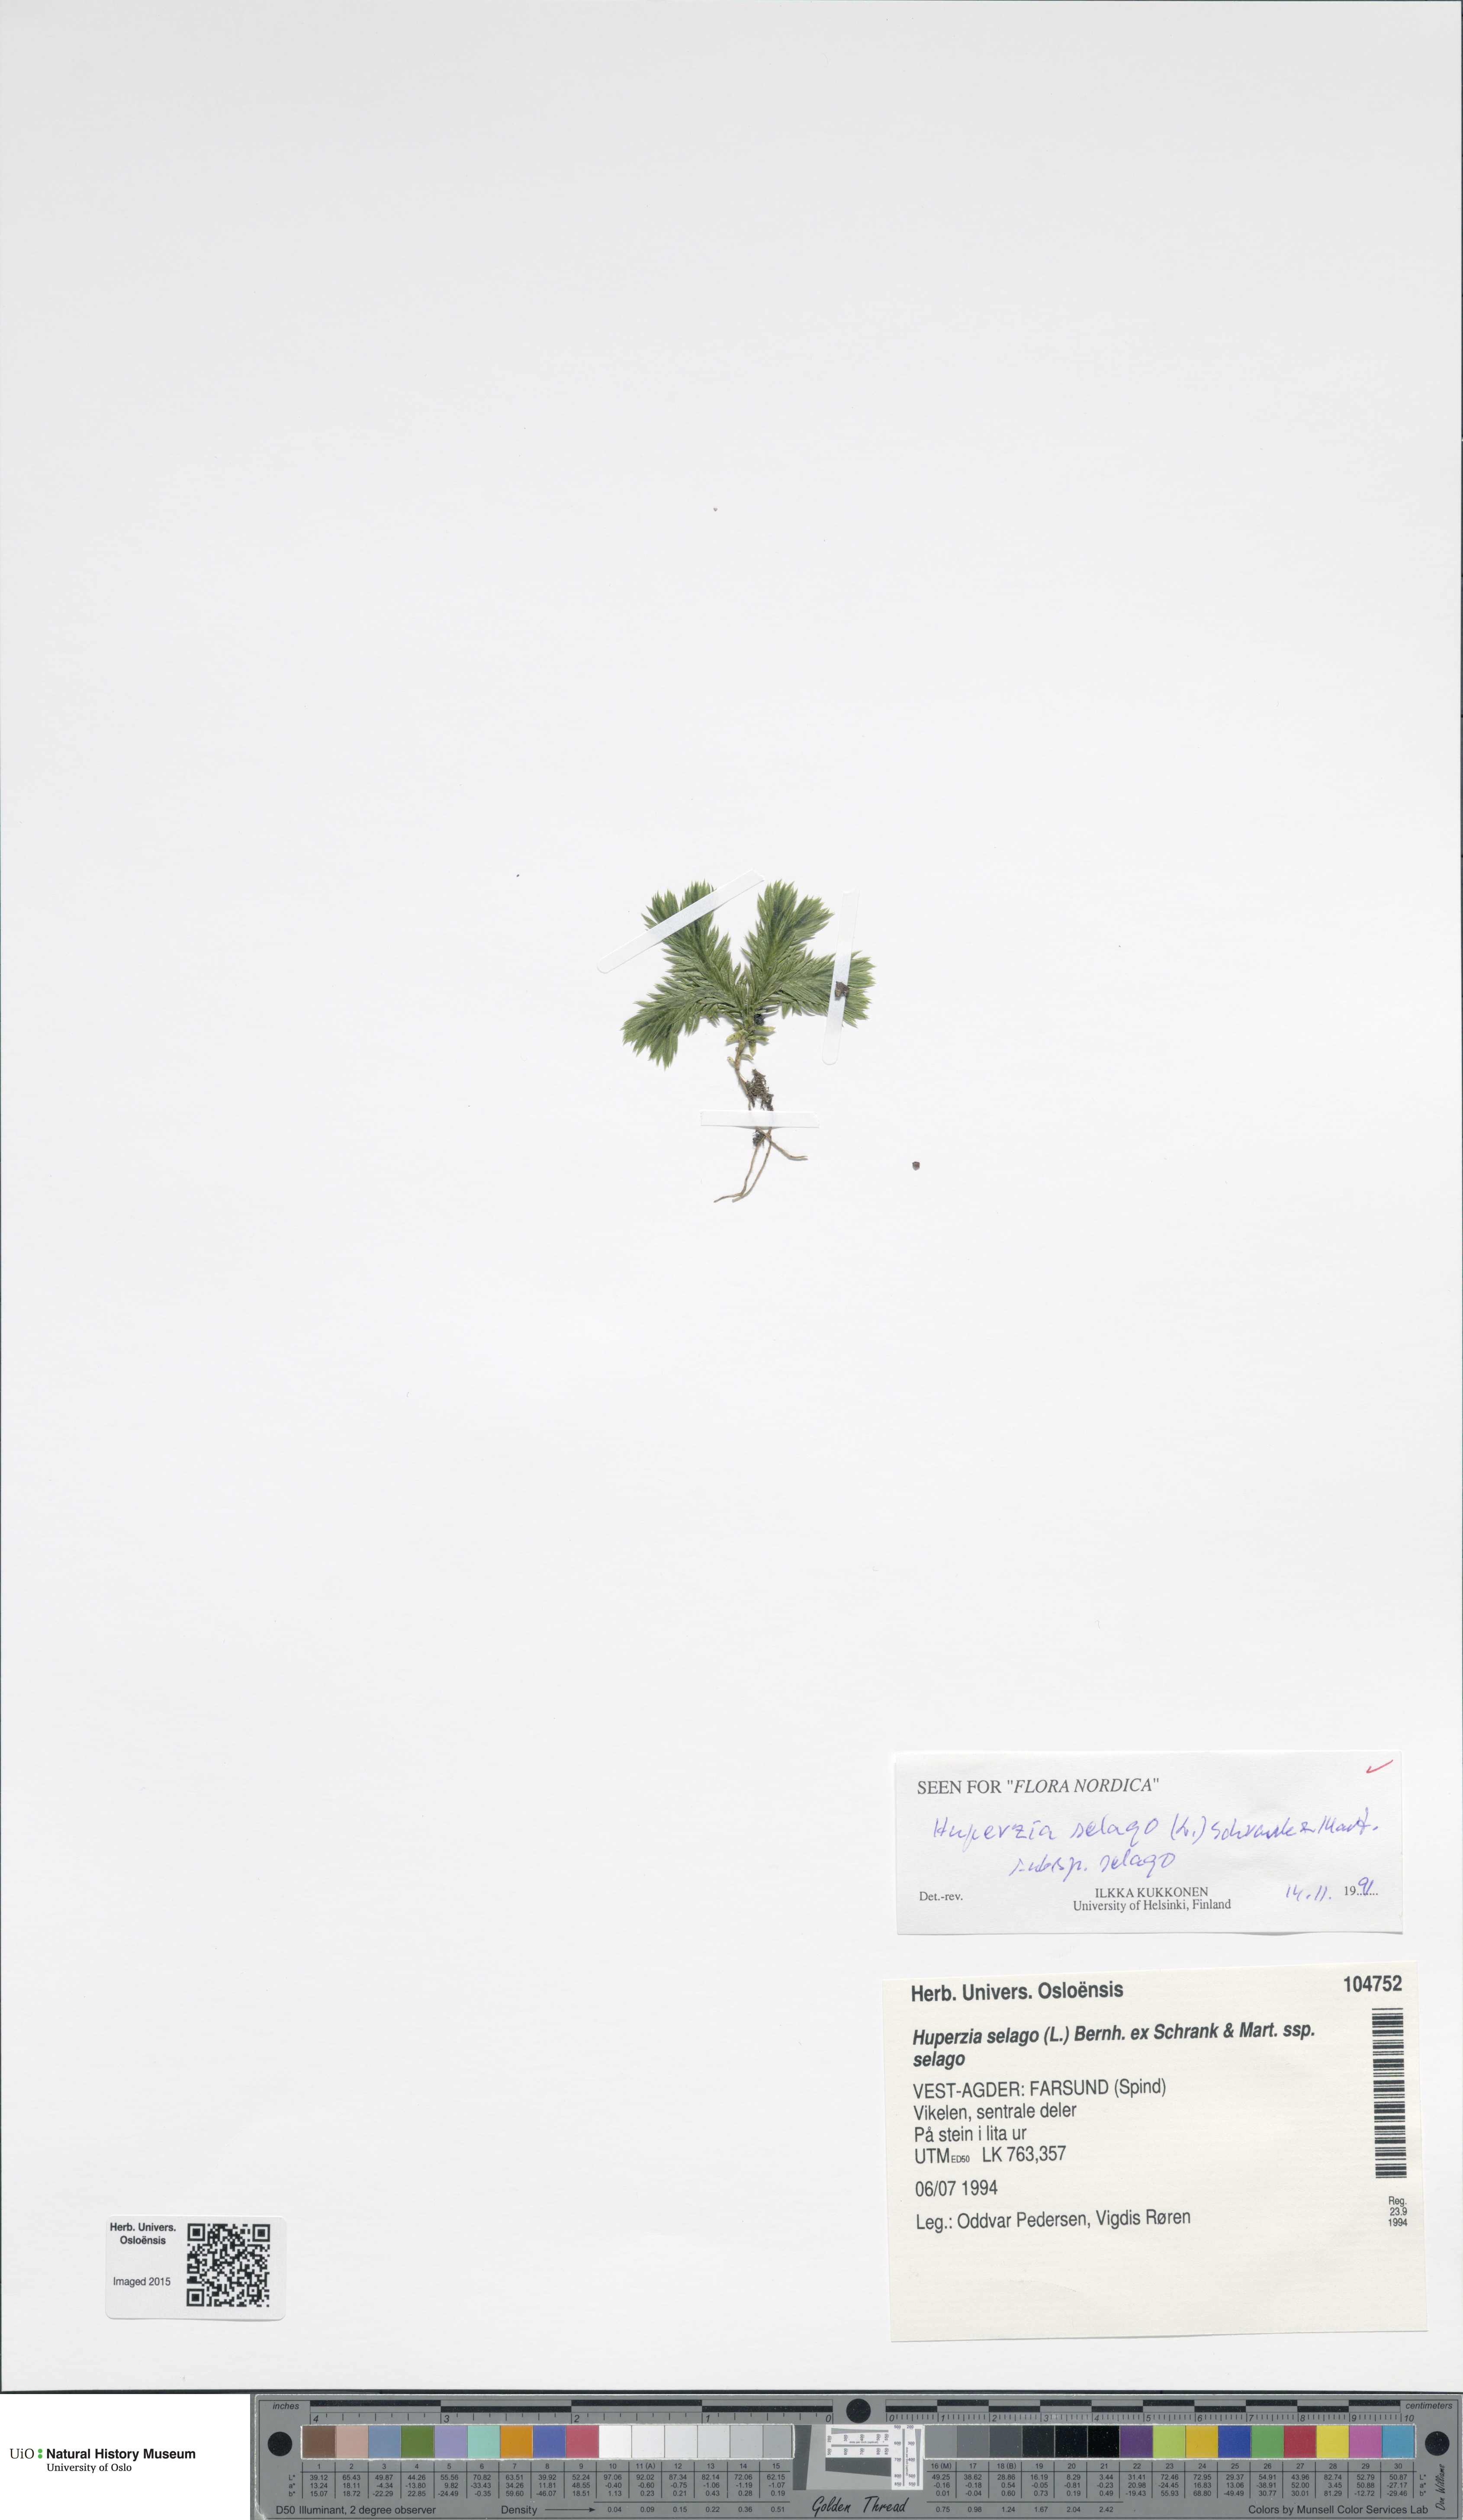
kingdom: Plantae
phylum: Tracheophyta
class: Lycopodiopsida
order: Lycopodiales
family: Lycopodiaceae
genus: Huperzia
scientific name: Huperzia selago
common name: Northern firmoss
